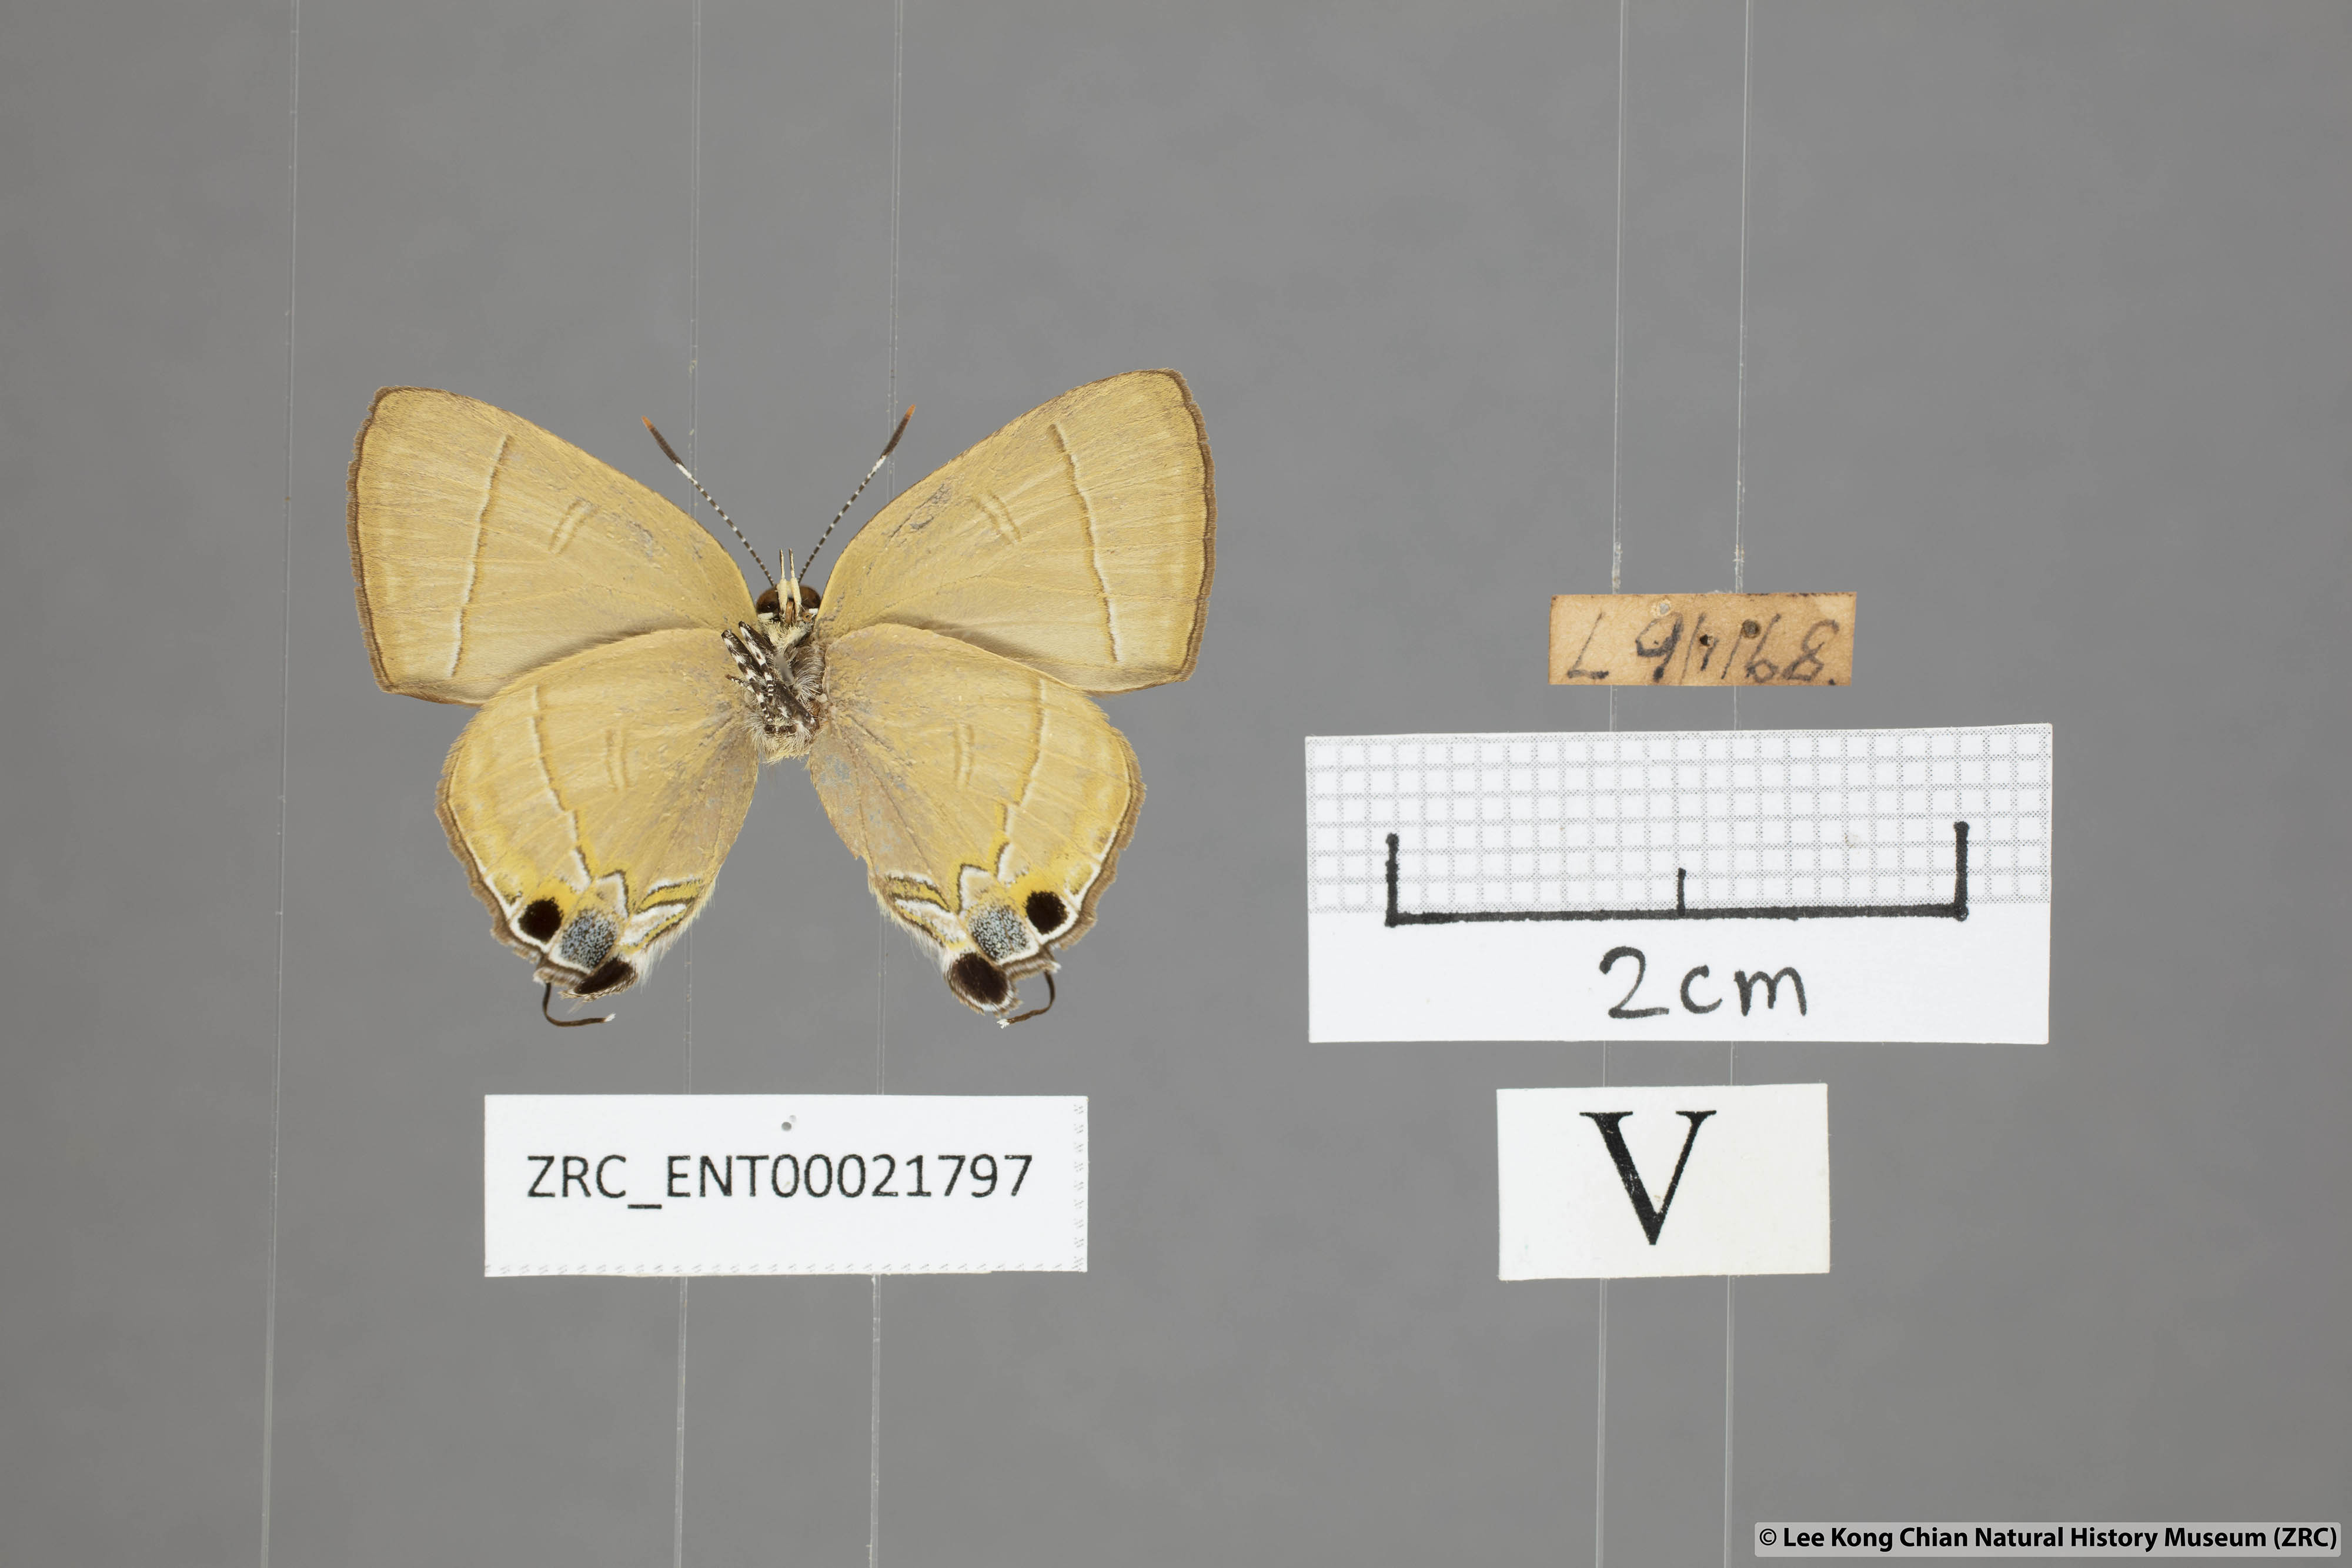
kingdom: Animalia
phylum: Arthropoda
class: Insecta
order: Lepidoptera
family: Lycaenidae
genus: Rapala
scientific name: Rapala dieneces
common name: Scarlet flash
